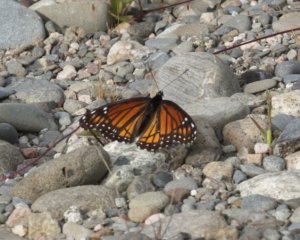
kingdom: Animalia
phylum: Arthropoda
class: Insecta
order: Lepidoptera
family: Nymphalidae
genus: Limenitis
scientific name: Limenitis archippus
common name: Viceroy
